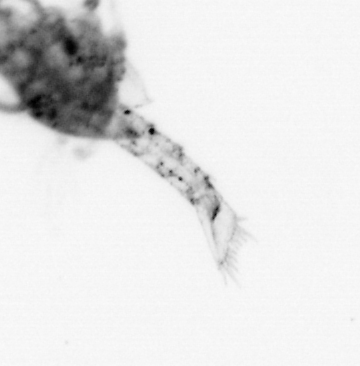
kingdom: Animalia
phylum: Arthropoda
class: Malacostraca
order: Decapoda
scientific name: Decapoda
